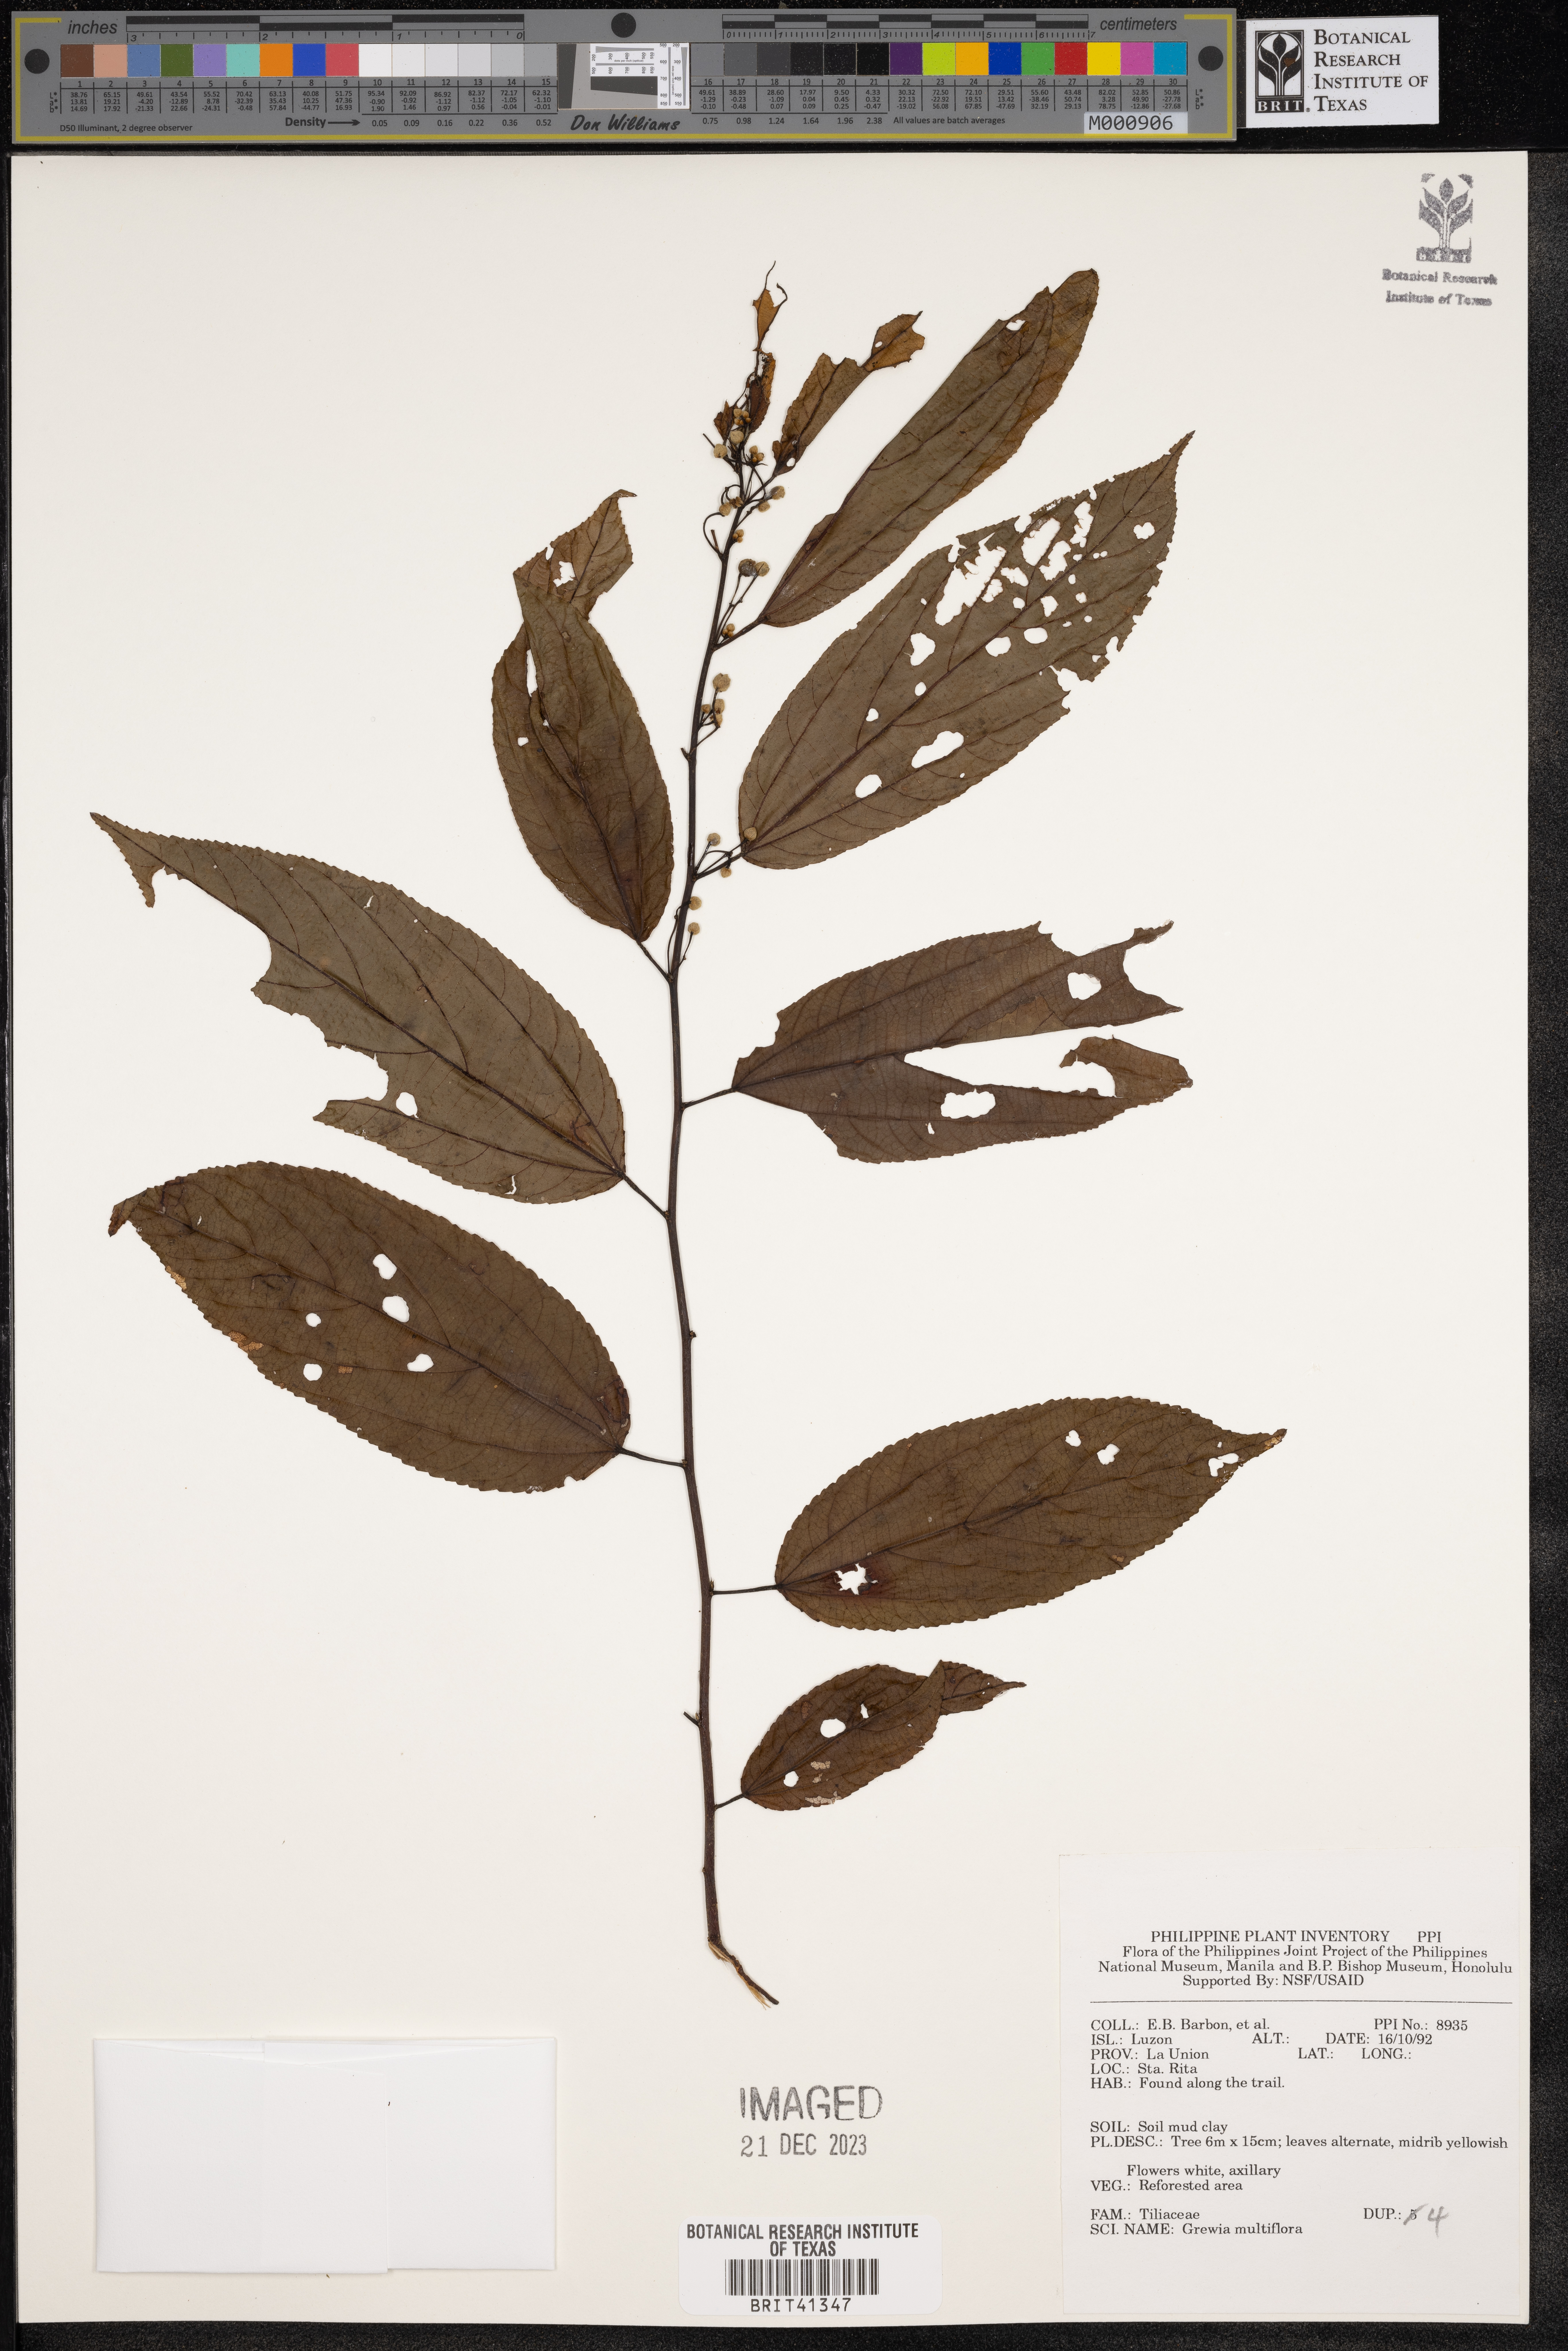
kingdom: Plantae
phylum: Tracheophyta
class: Magnoliopsida
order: Malvales
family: Malvaceae
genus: Grewia
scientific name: Grewia multiflora
